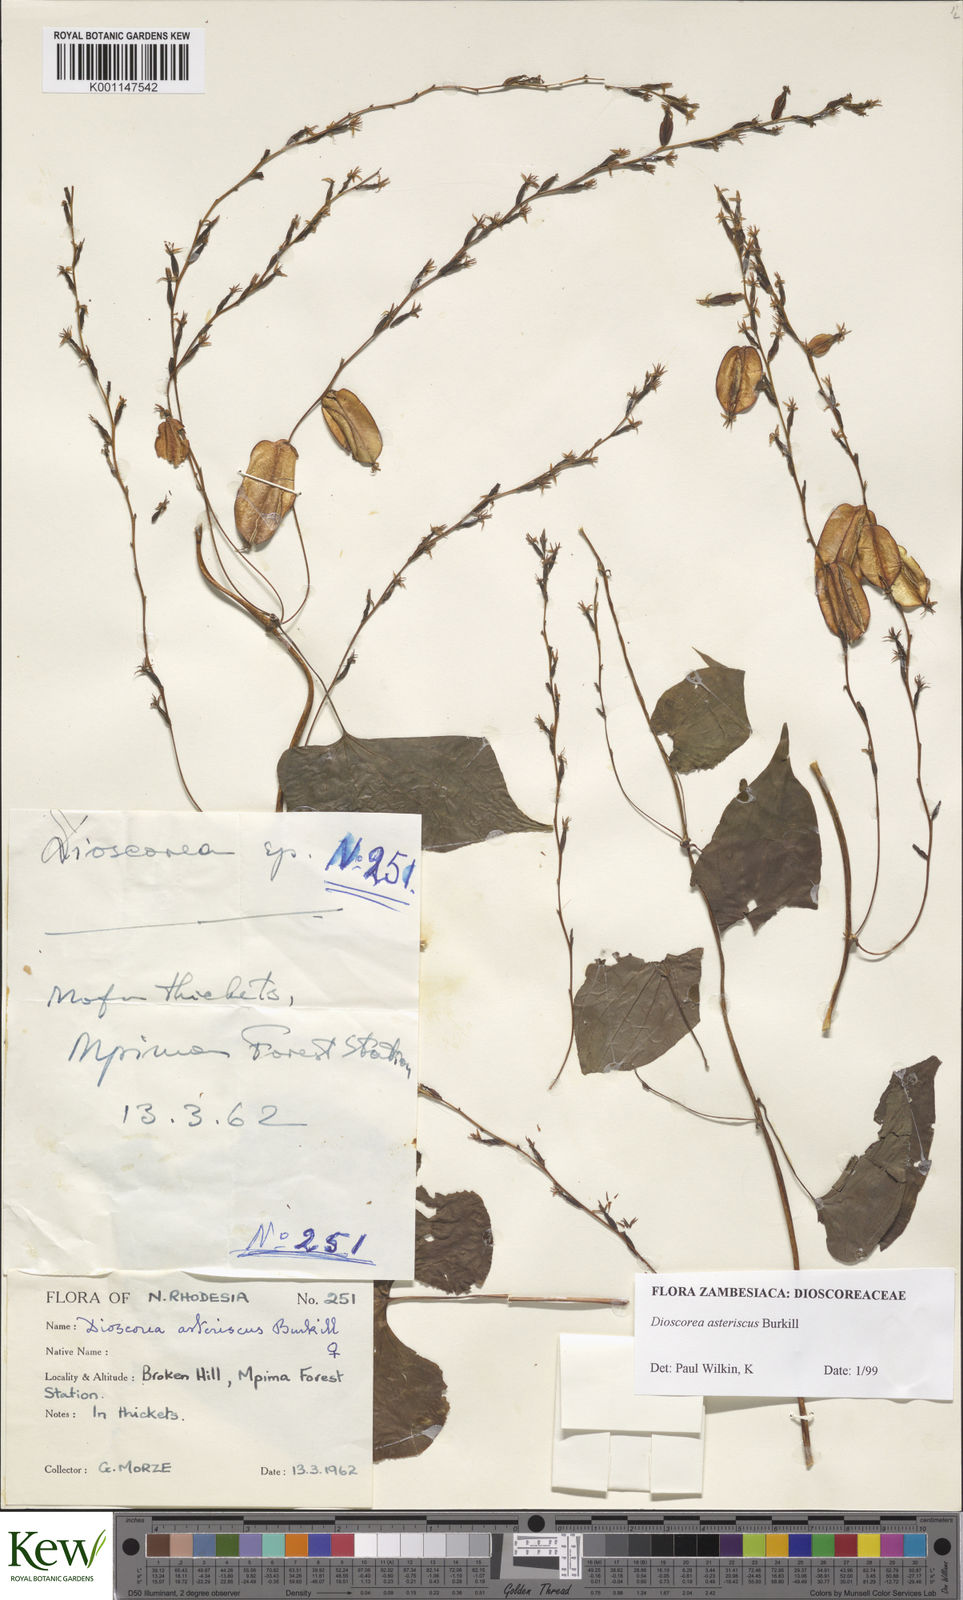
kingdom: Plantae
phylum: Tracheophyta
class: Liliopsida
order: Dioscoreales
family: Dioscoreaceae
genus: Dioscorea
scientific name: Dioscorea asteriscus
